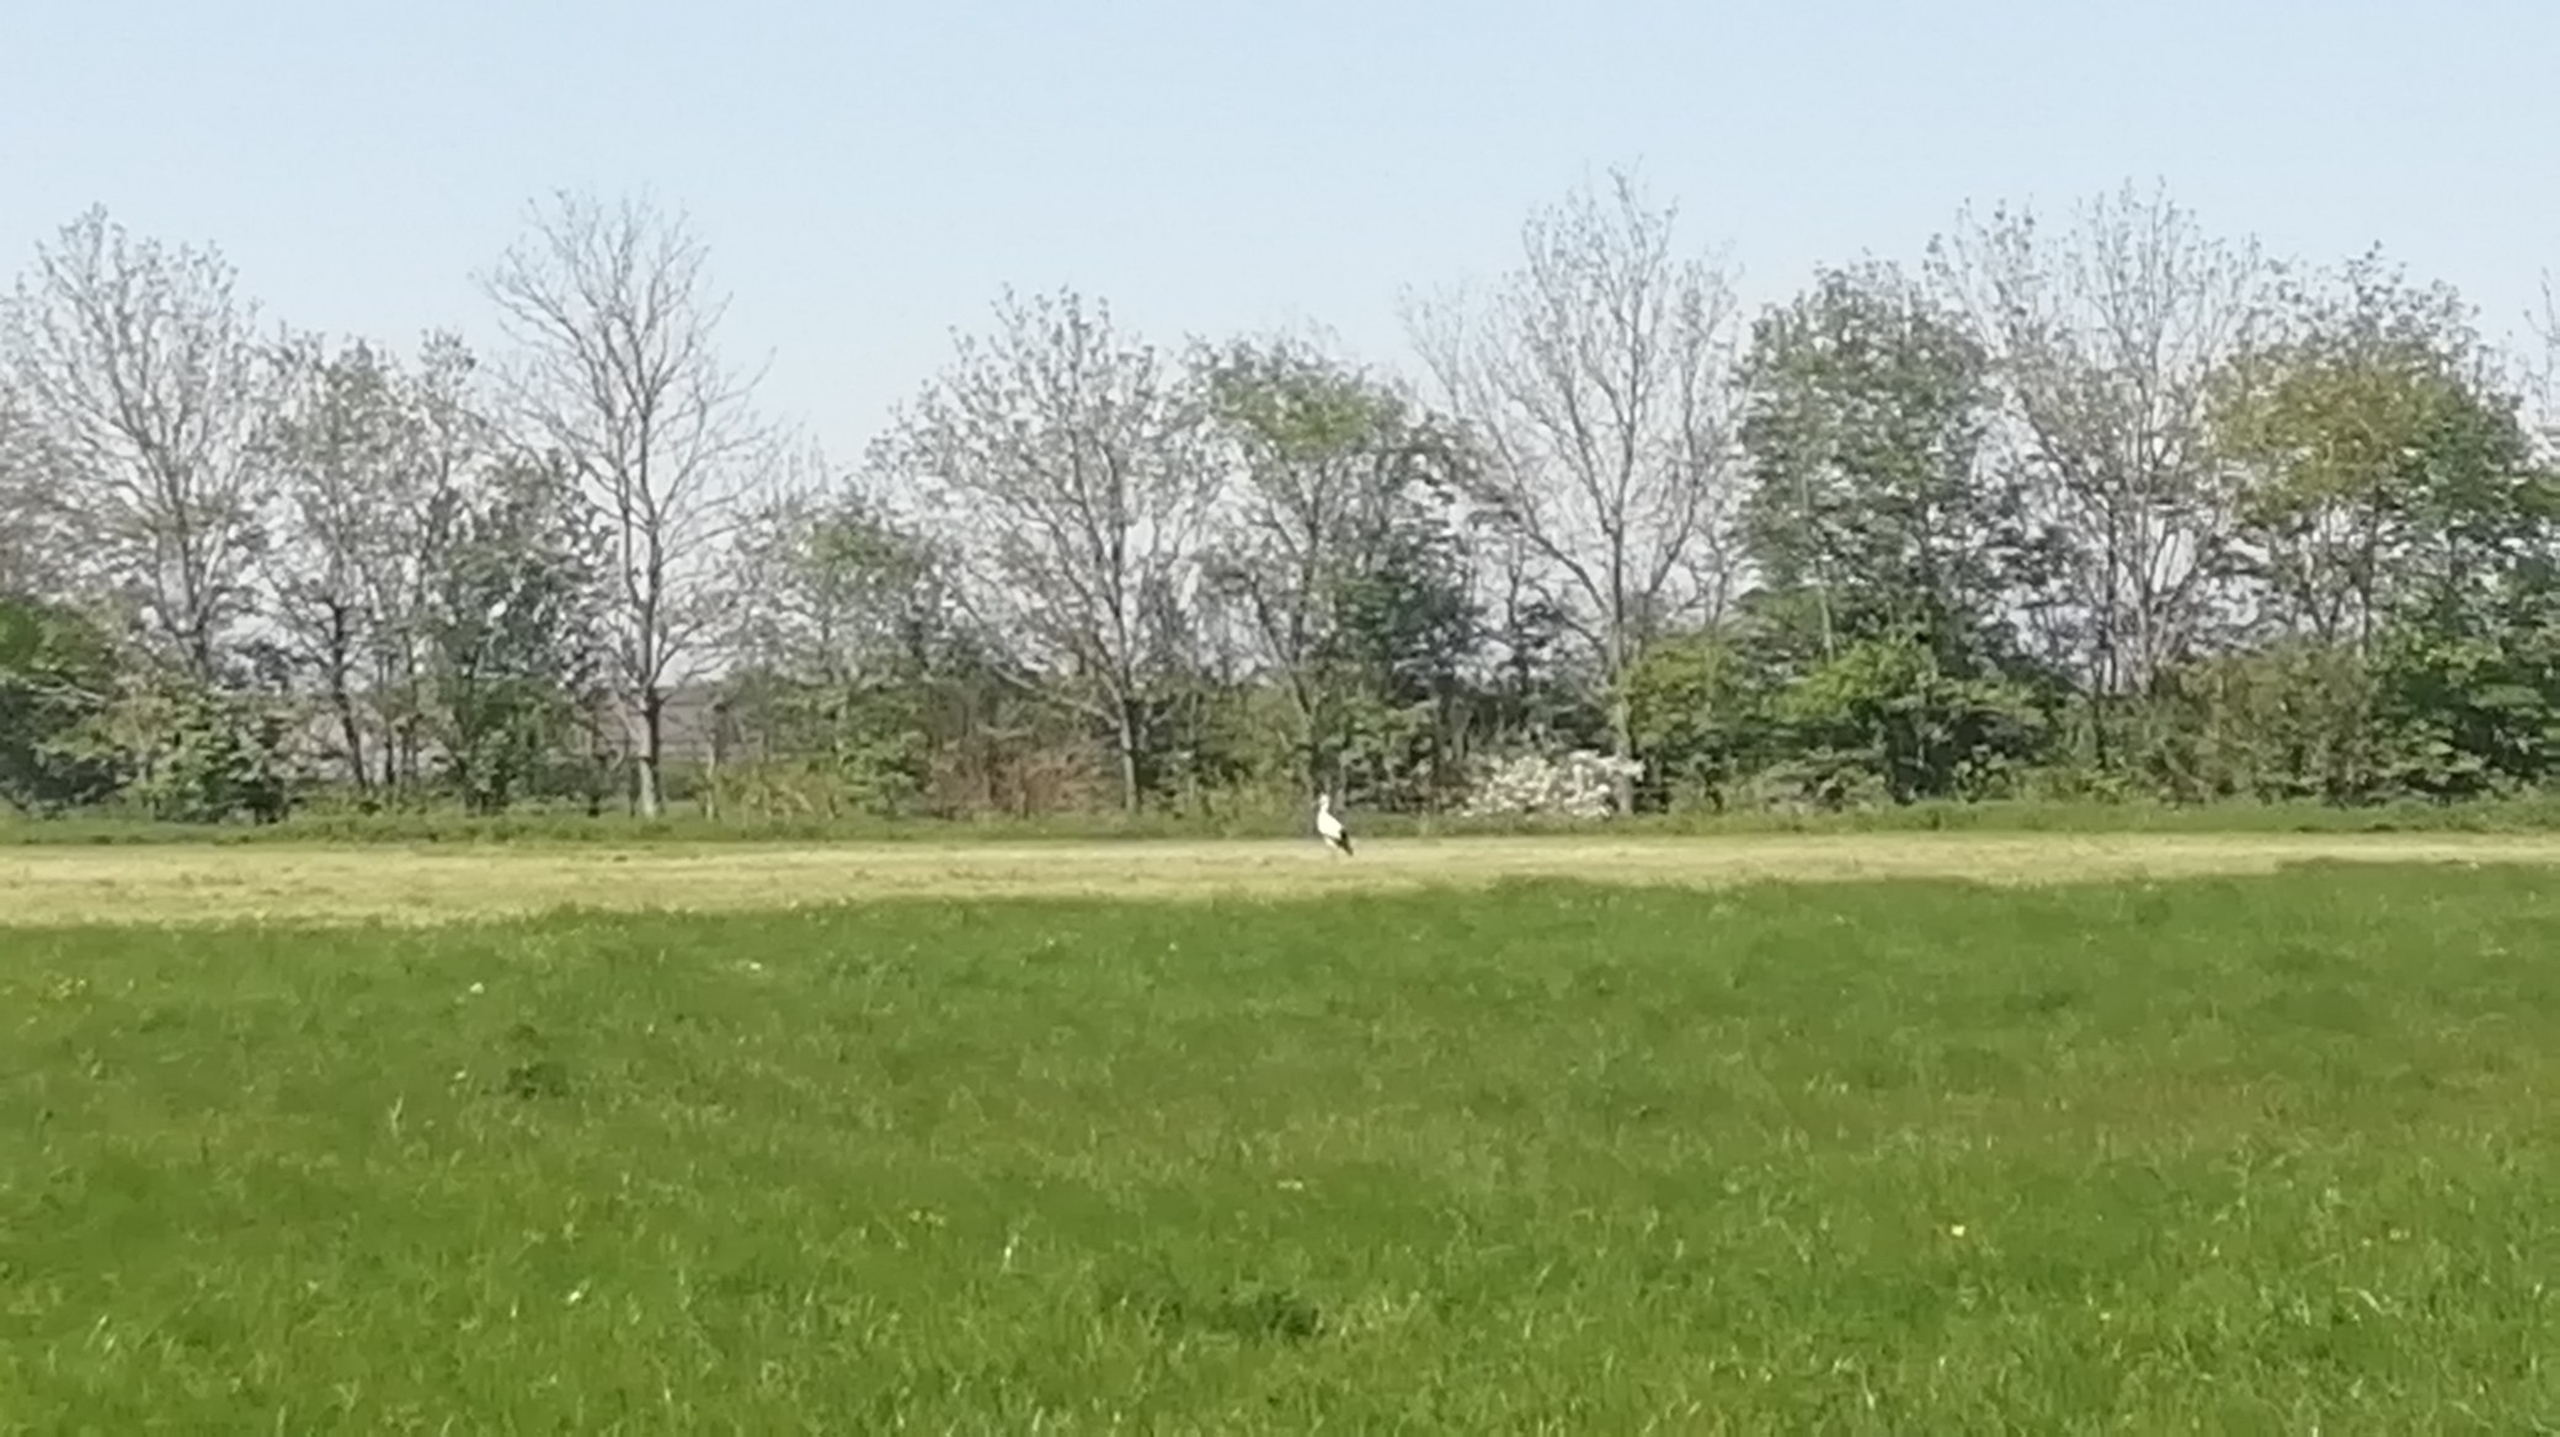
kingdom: Animalia
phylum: Chordata
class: Aves
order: Ciconiiformes
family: Ciconiidae
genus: Ciconia
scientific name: Ciconia ciconia
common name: Hvid stork
